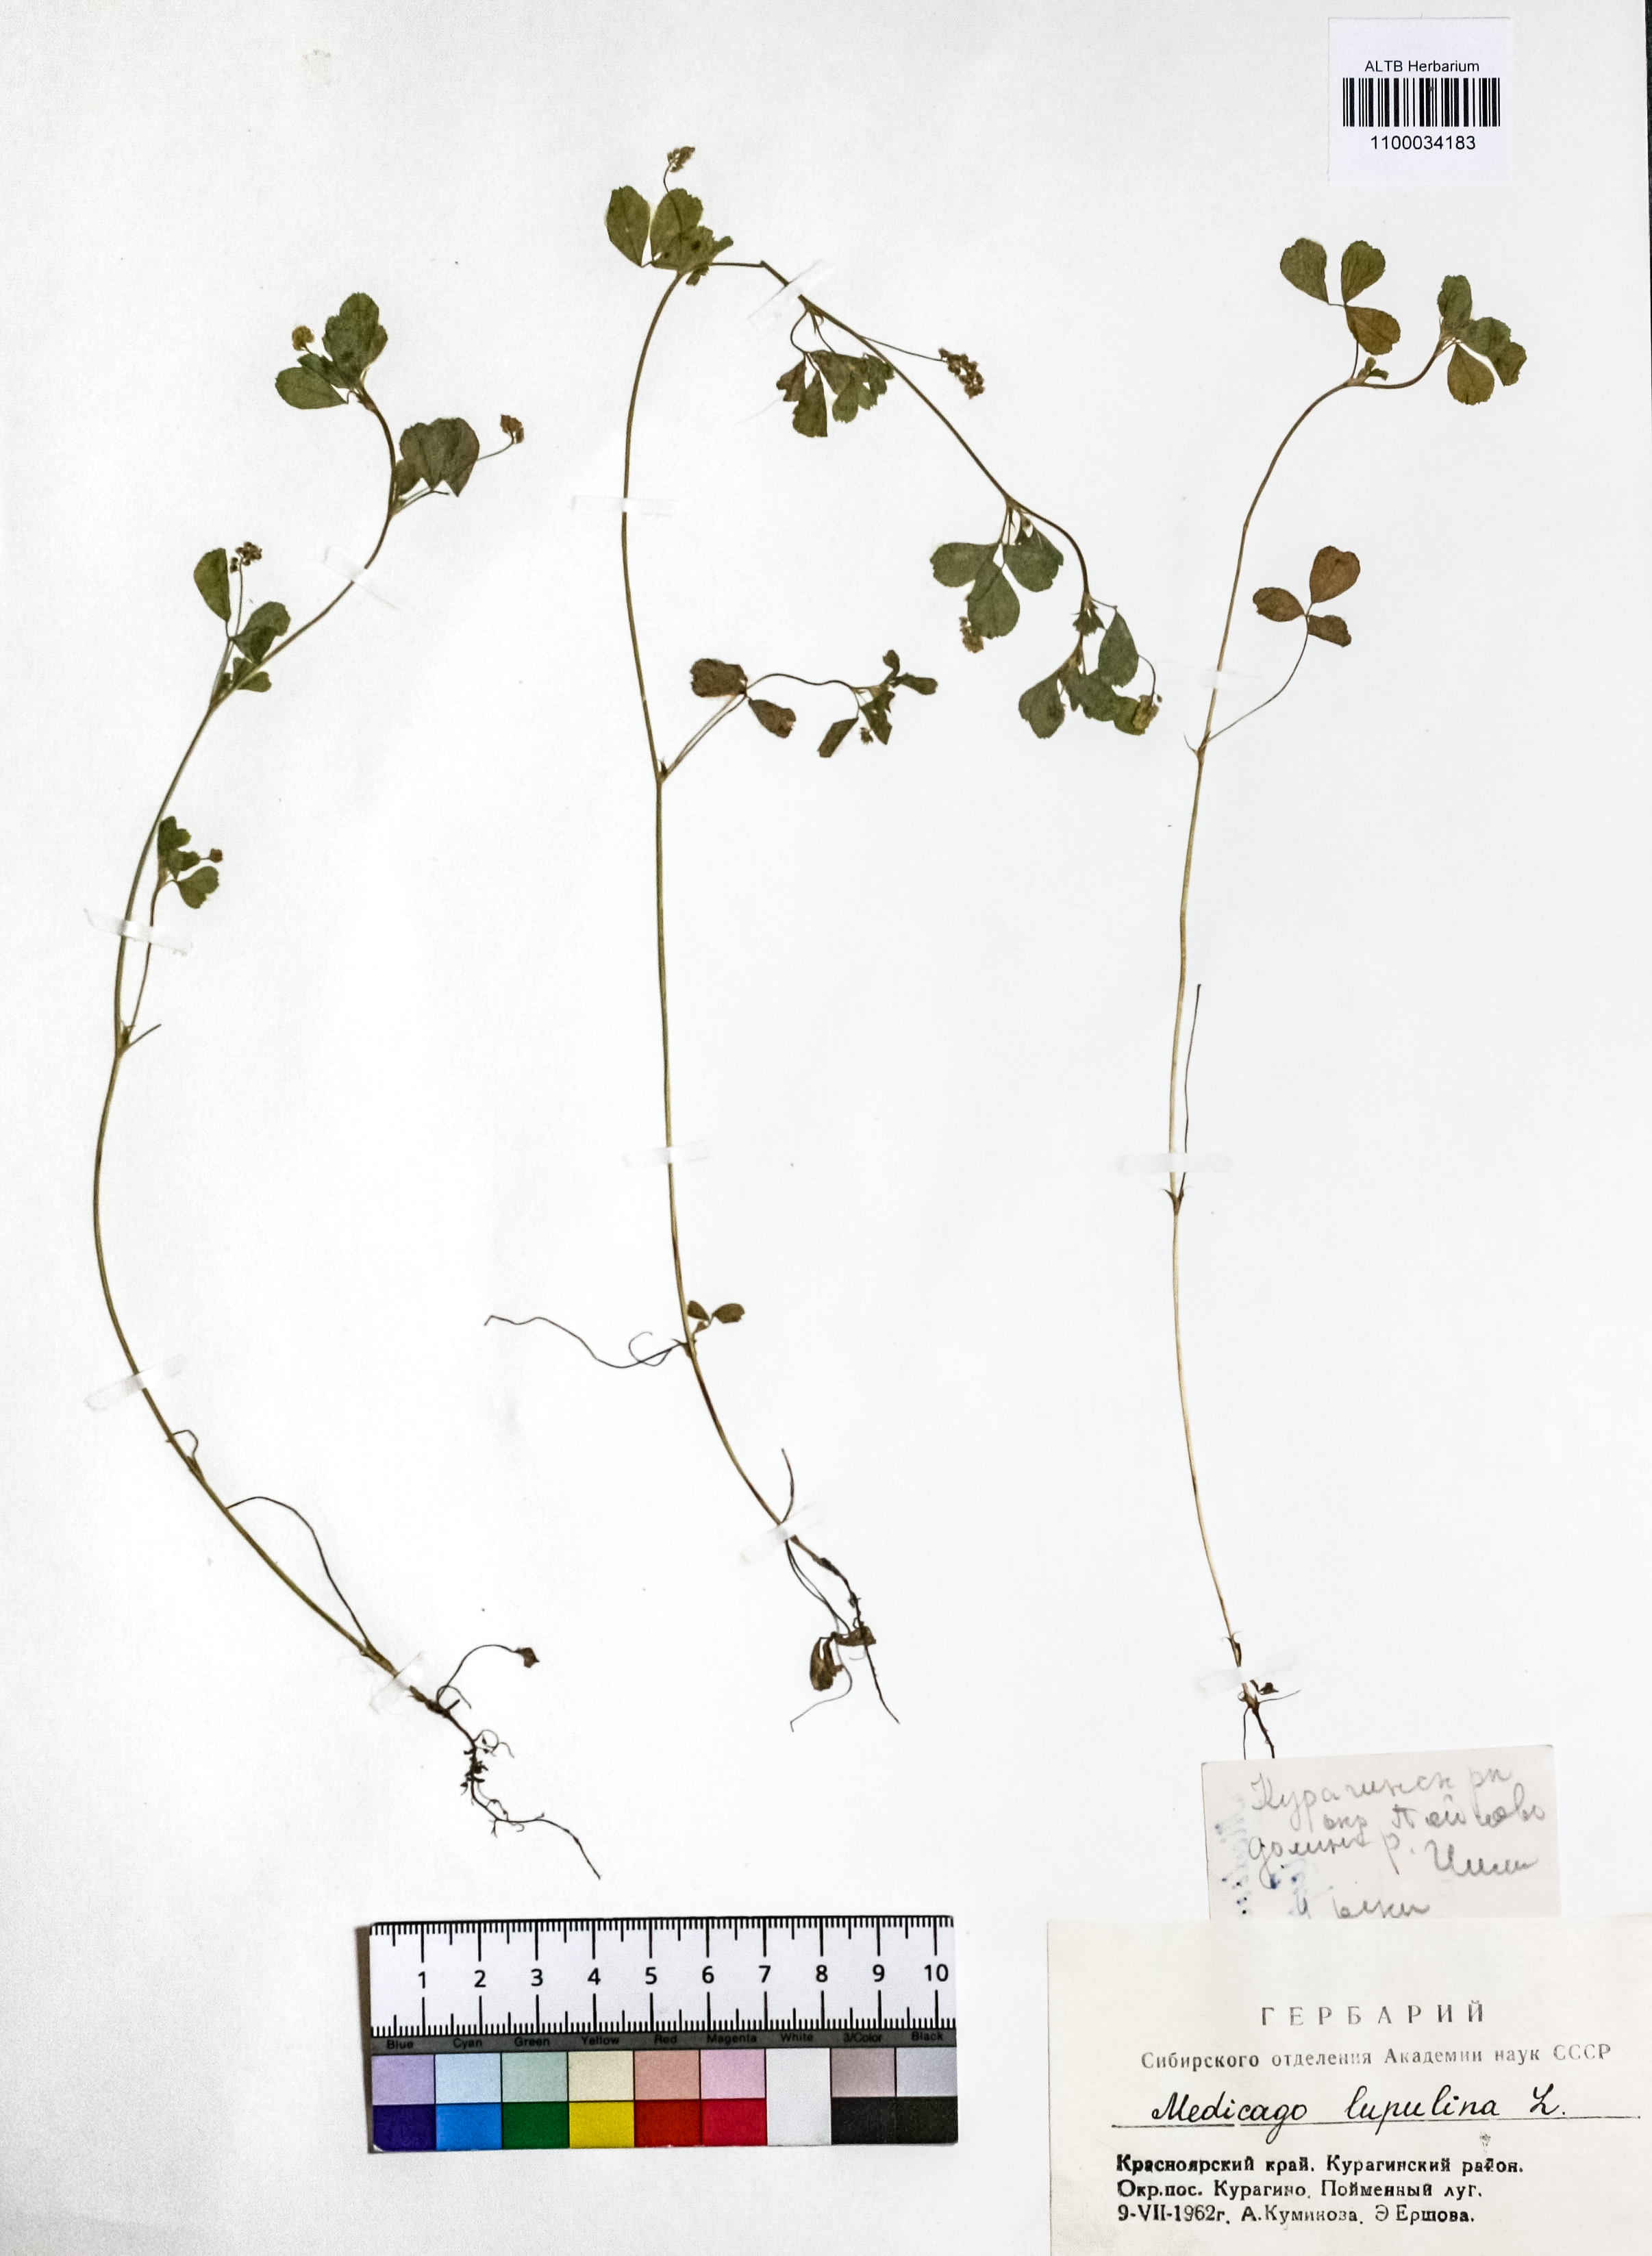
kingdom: Plantae
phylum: Tracheophyta
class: Magnoliopsida
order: Fabales
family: Fabaceae
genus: Medicago
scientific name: Medicago lupulina
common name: Black medick
